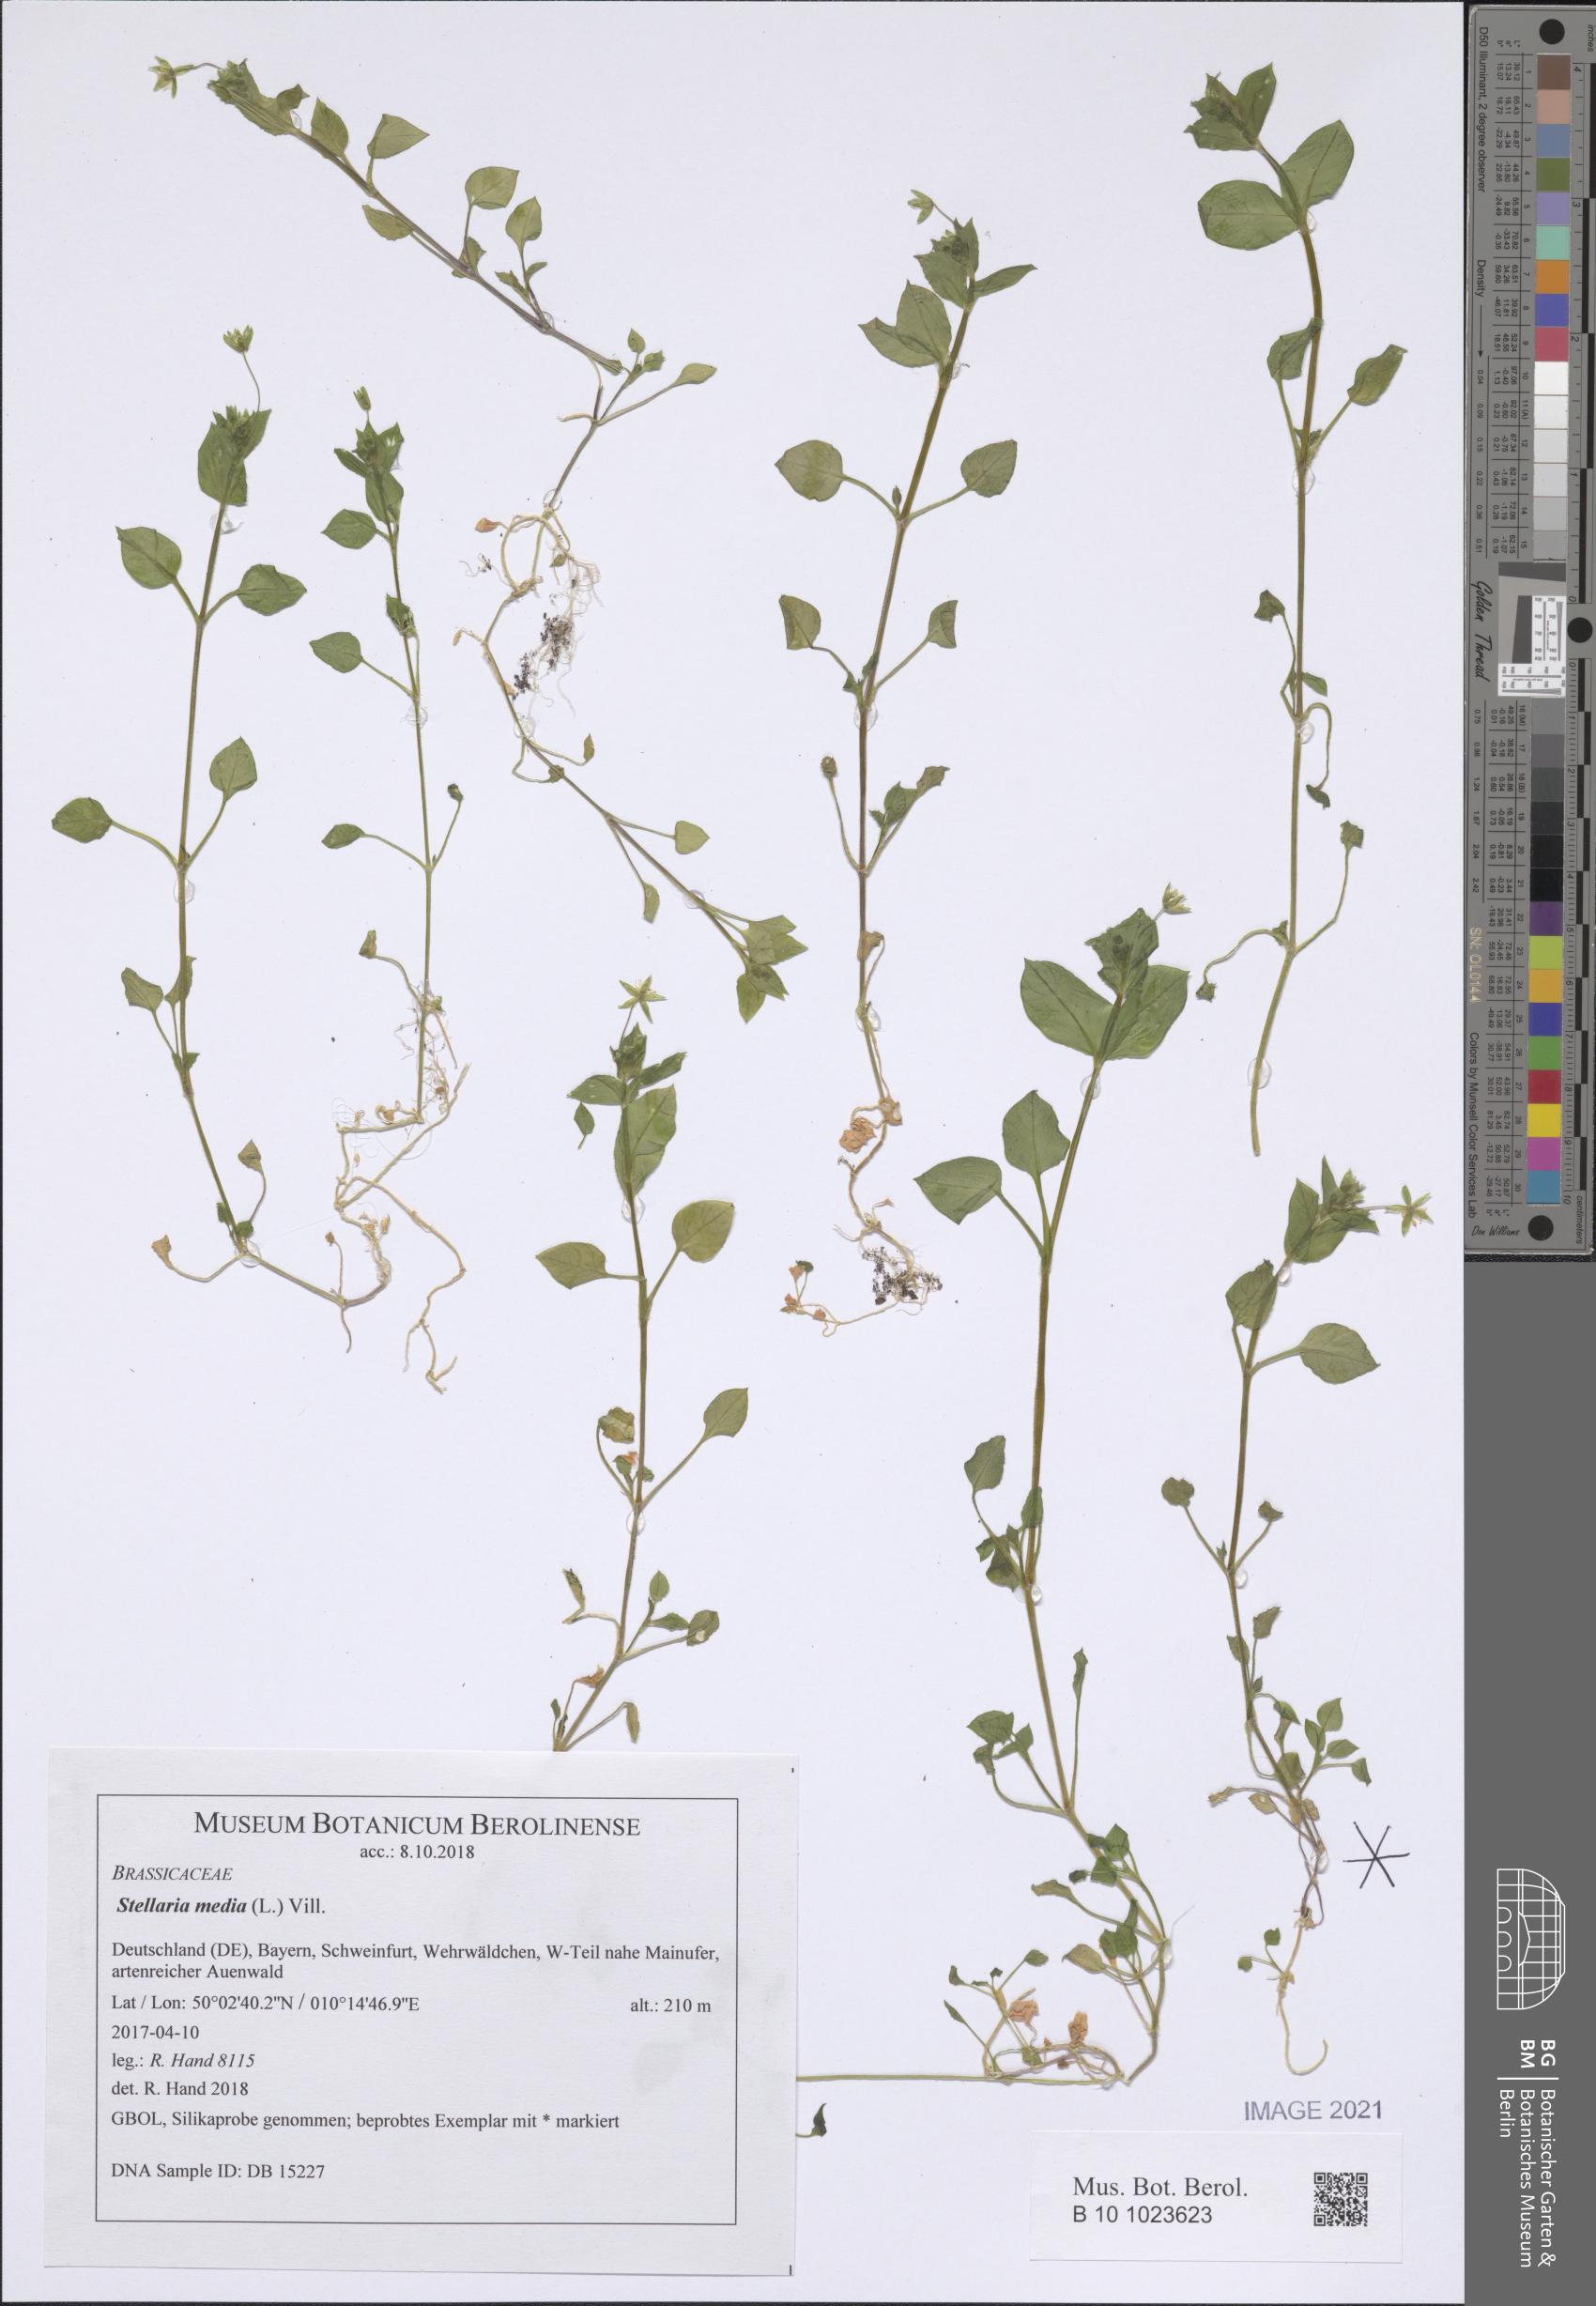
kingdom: Plantae
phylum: Tracheophyta
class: Magnoliopsida
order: Caryophyllales
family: Caryophyllaceae
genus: Stellaria
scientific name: Stellaria media
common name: Common chickweed
